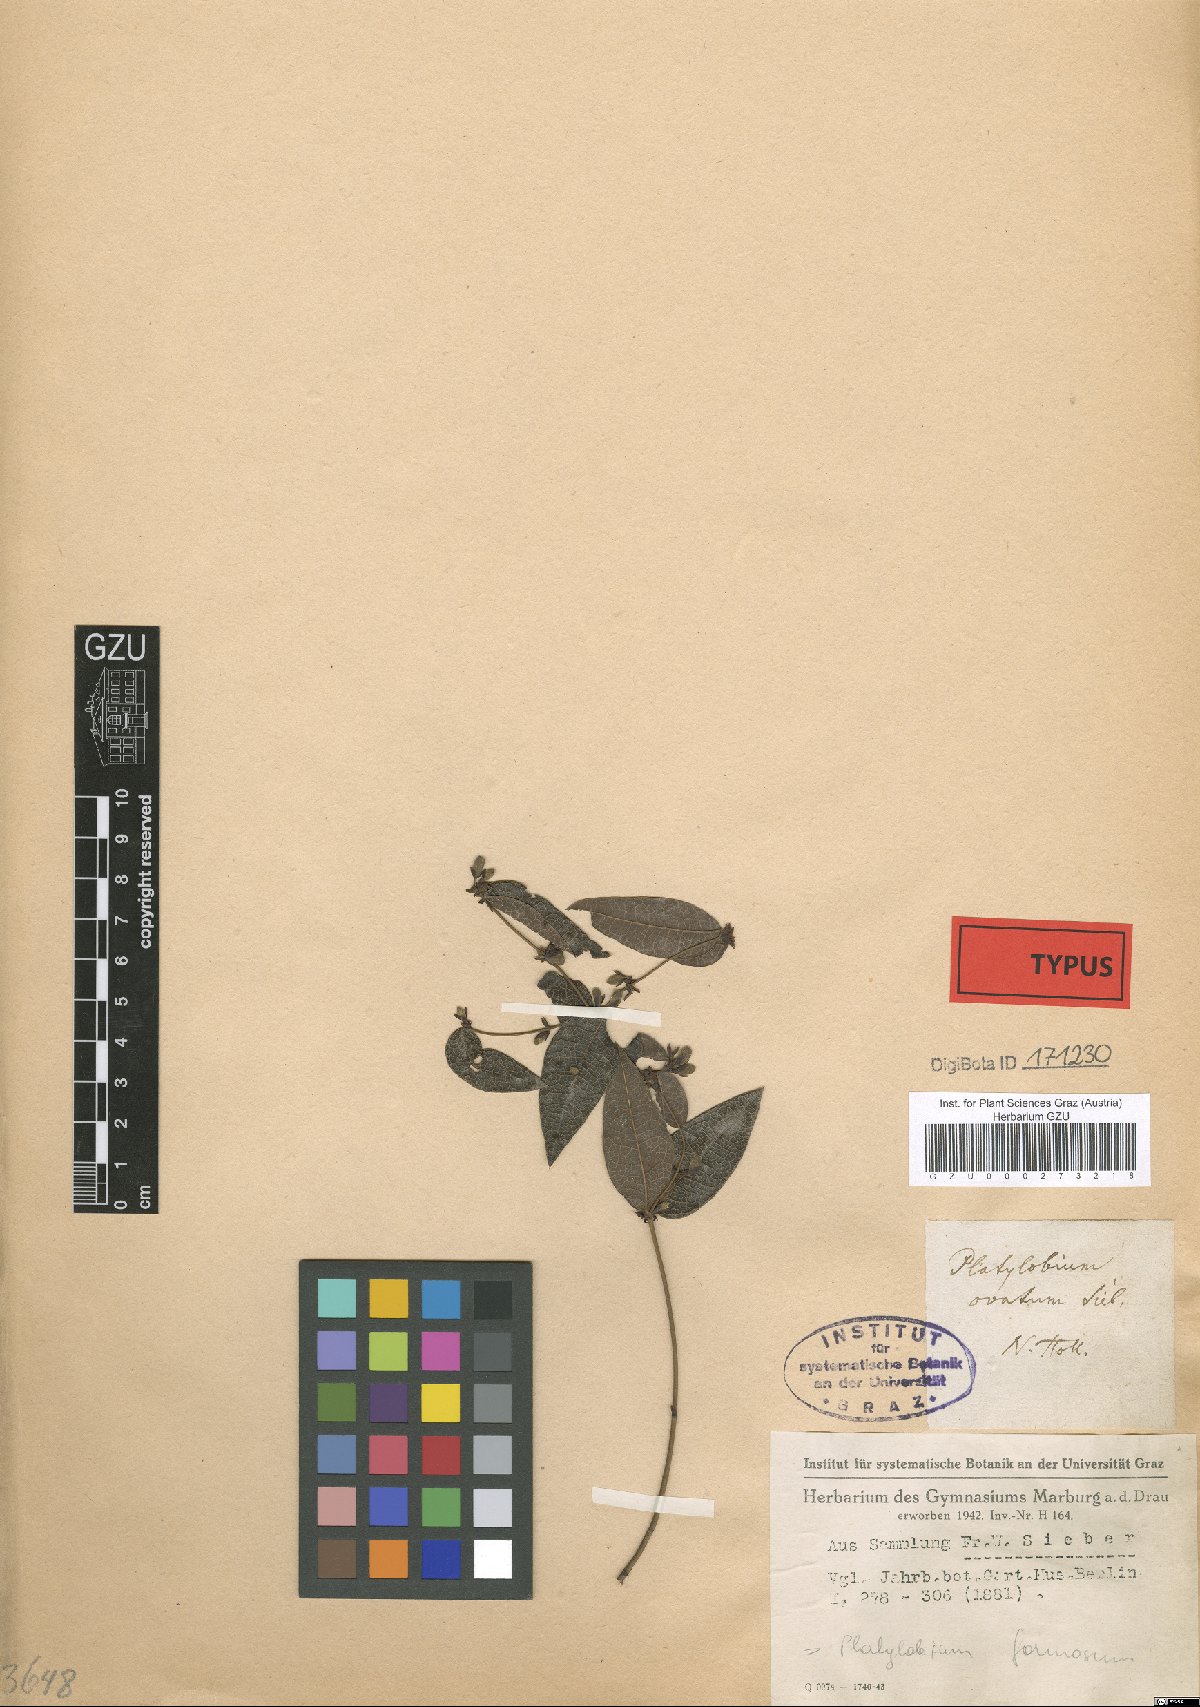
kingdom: Plantae
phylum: Tracheophyta
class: Magnoliopsida
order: Fabales
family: Fabaceae
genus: Platylobium
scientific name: Platylobium parviflorum
